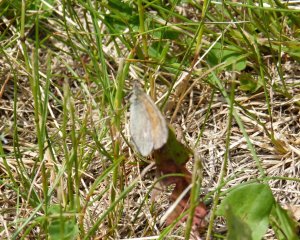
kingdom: Animalia
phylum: Arthropoda
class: Insecta
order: Lepidoptera
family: Nymphalidae
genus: Coenonympha
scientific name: Coenonympha tullia
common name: Large Heath
